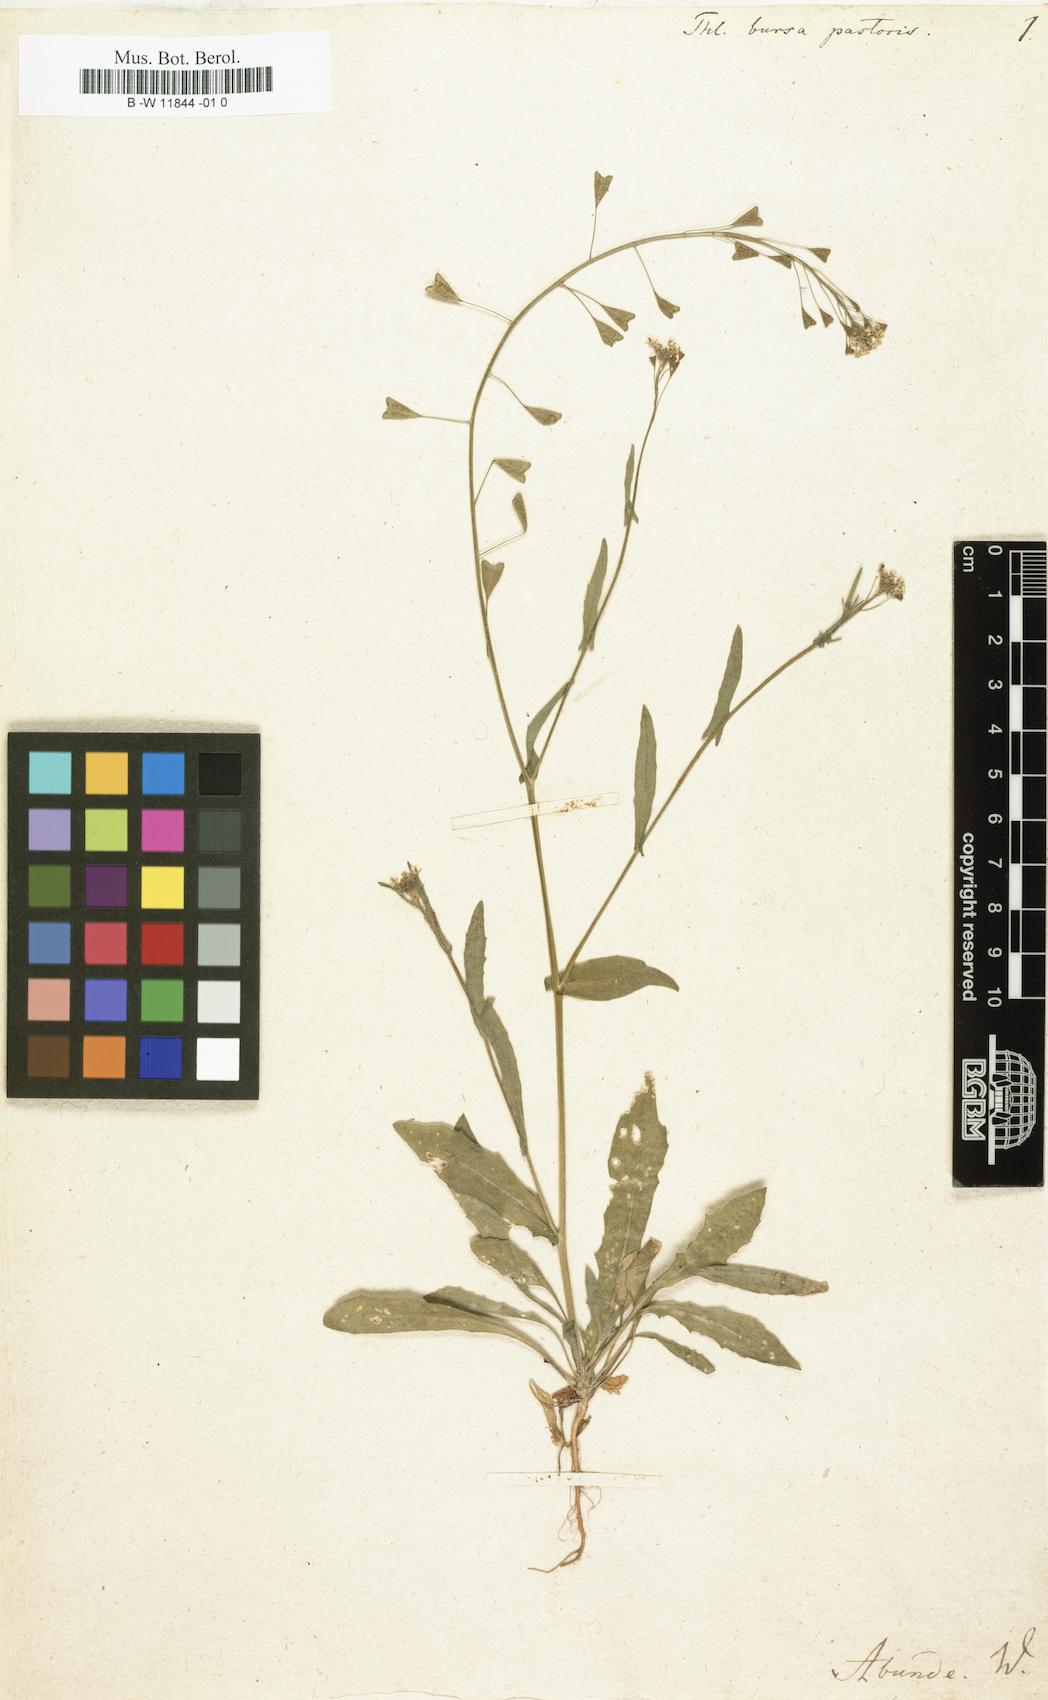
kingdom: Plantae
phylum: Tracheophyta
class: Magnoliopsida
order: Brassicales
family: Brassicaceae
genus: Capsella
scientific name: Capsella bursa-pastoris
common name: Shepherd's purse
